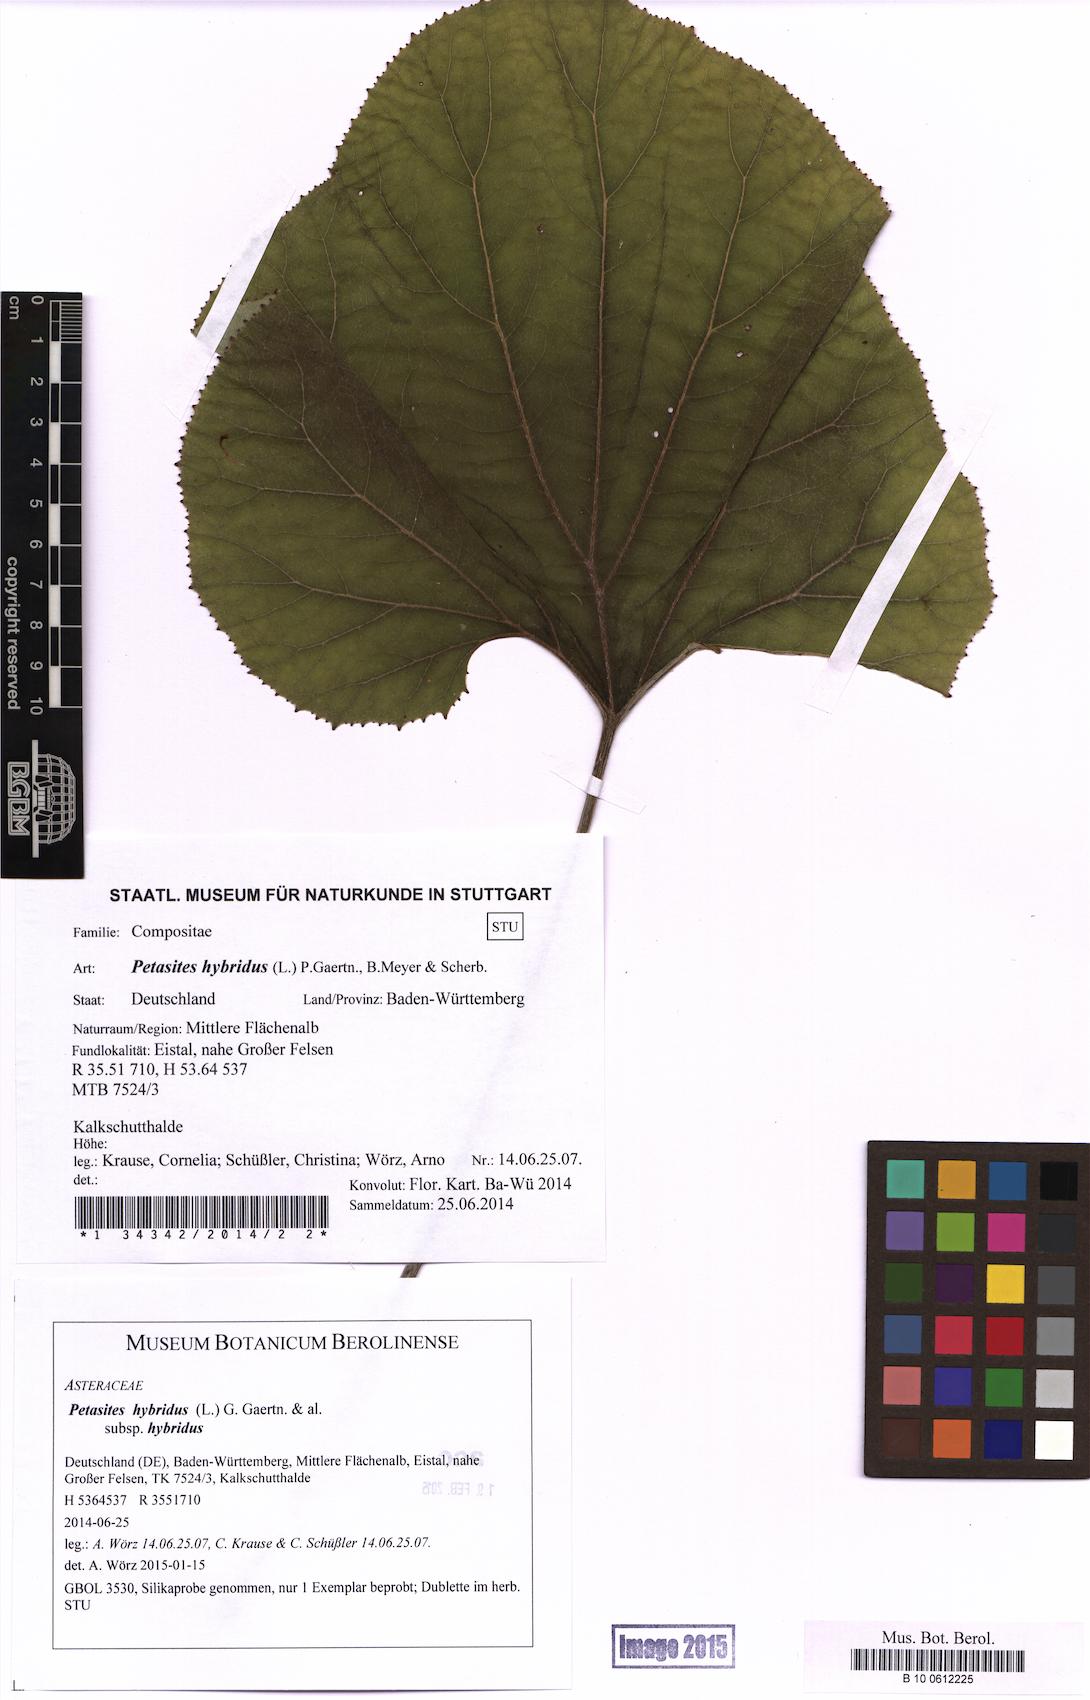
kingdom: Plantae
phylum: Tracheophyta
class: Magnoliopsida
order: Asterales
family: Asteraceae
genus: Petasites
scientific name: Petasites hybridus
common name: Butterbur
